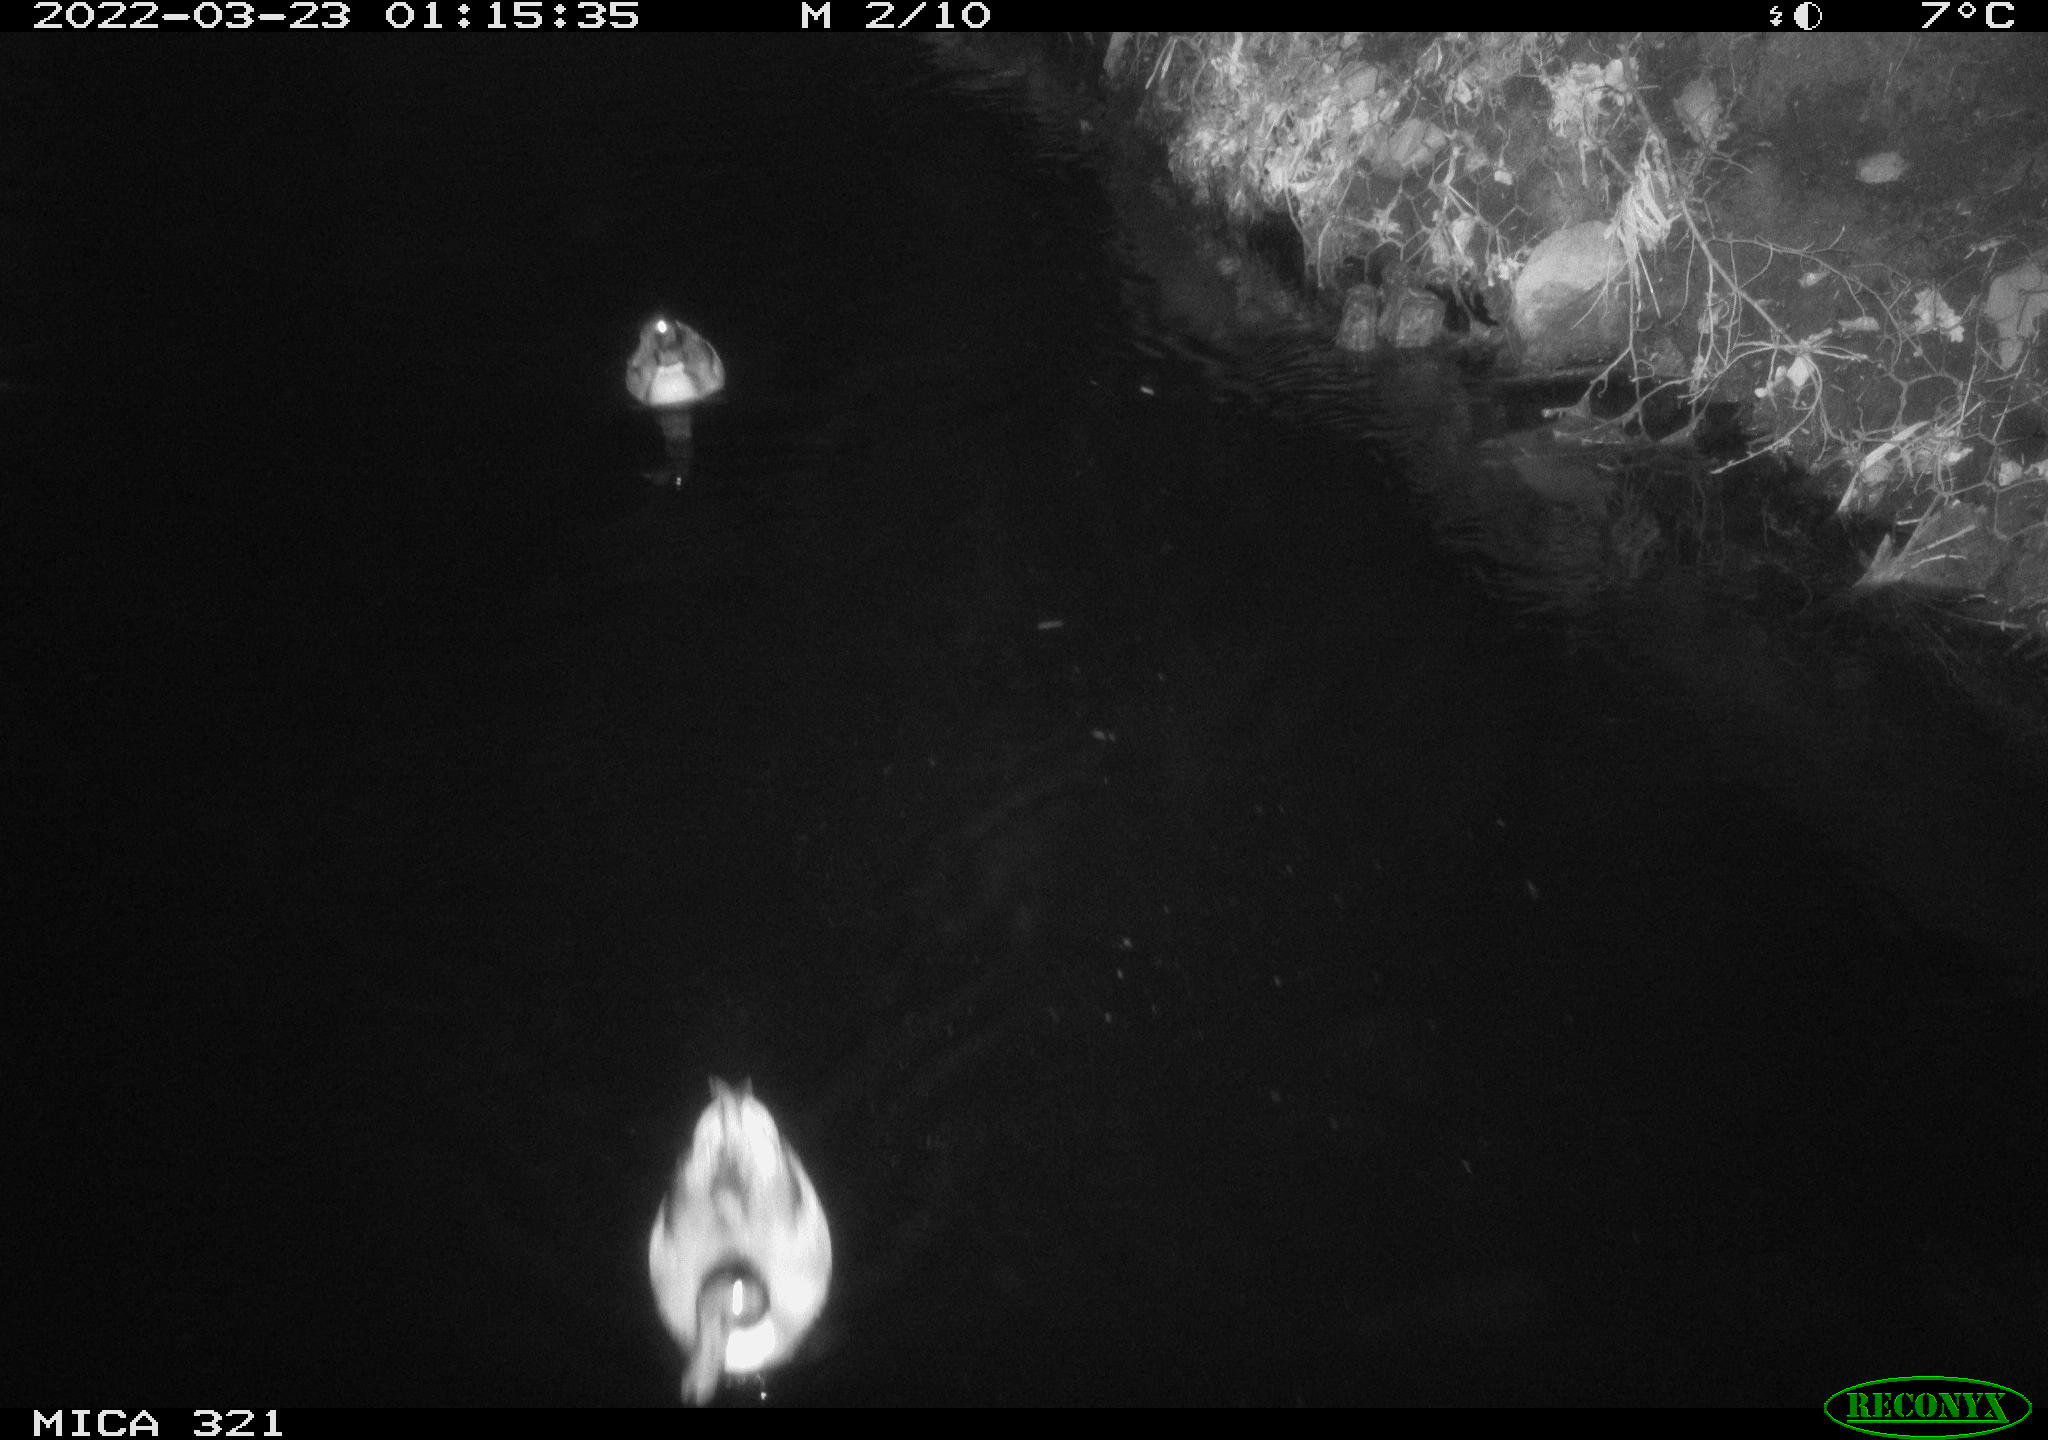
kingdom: Animalia
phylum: Chordata
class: Aves
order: Anseriformes
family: Anatidae
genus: Anas
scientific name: Anas platyrhynchos
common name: Mallard
